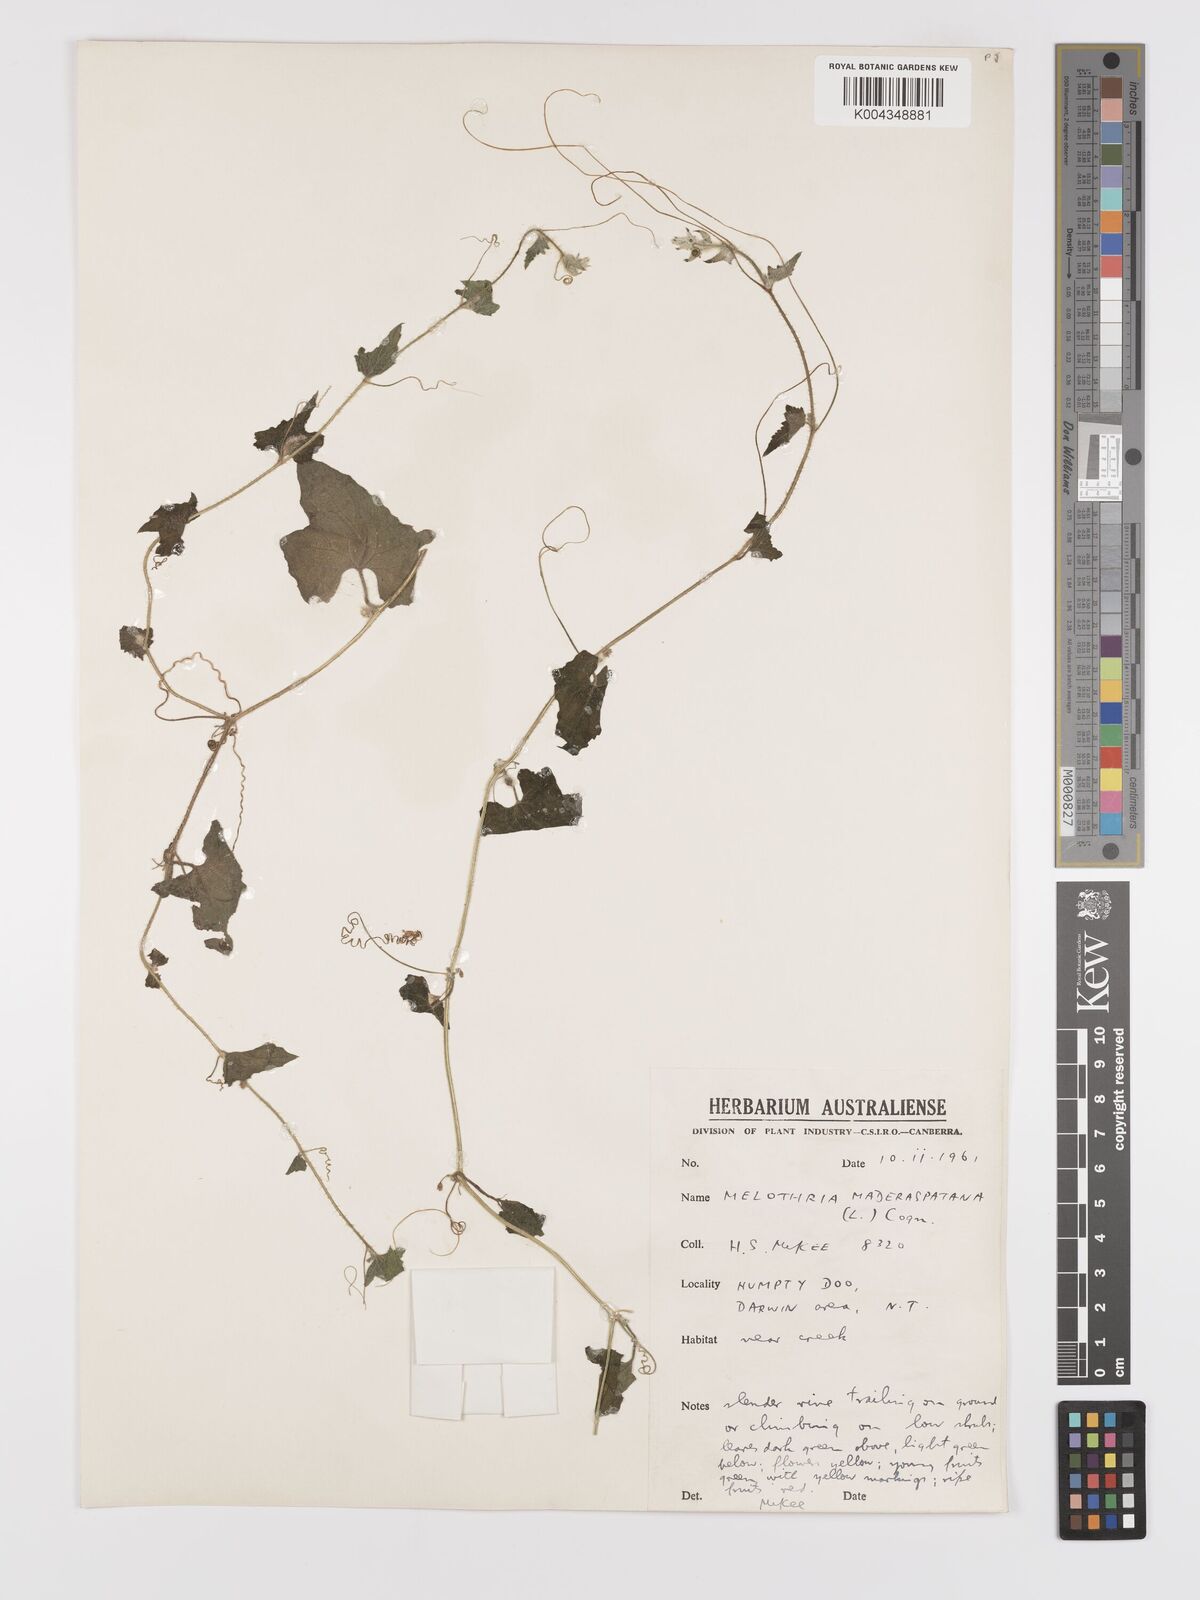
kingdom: Animalia
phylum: Arthropoda
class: Insecta
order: Lepidoptera
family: Crambidae
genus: Mukia
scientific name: Mukia
